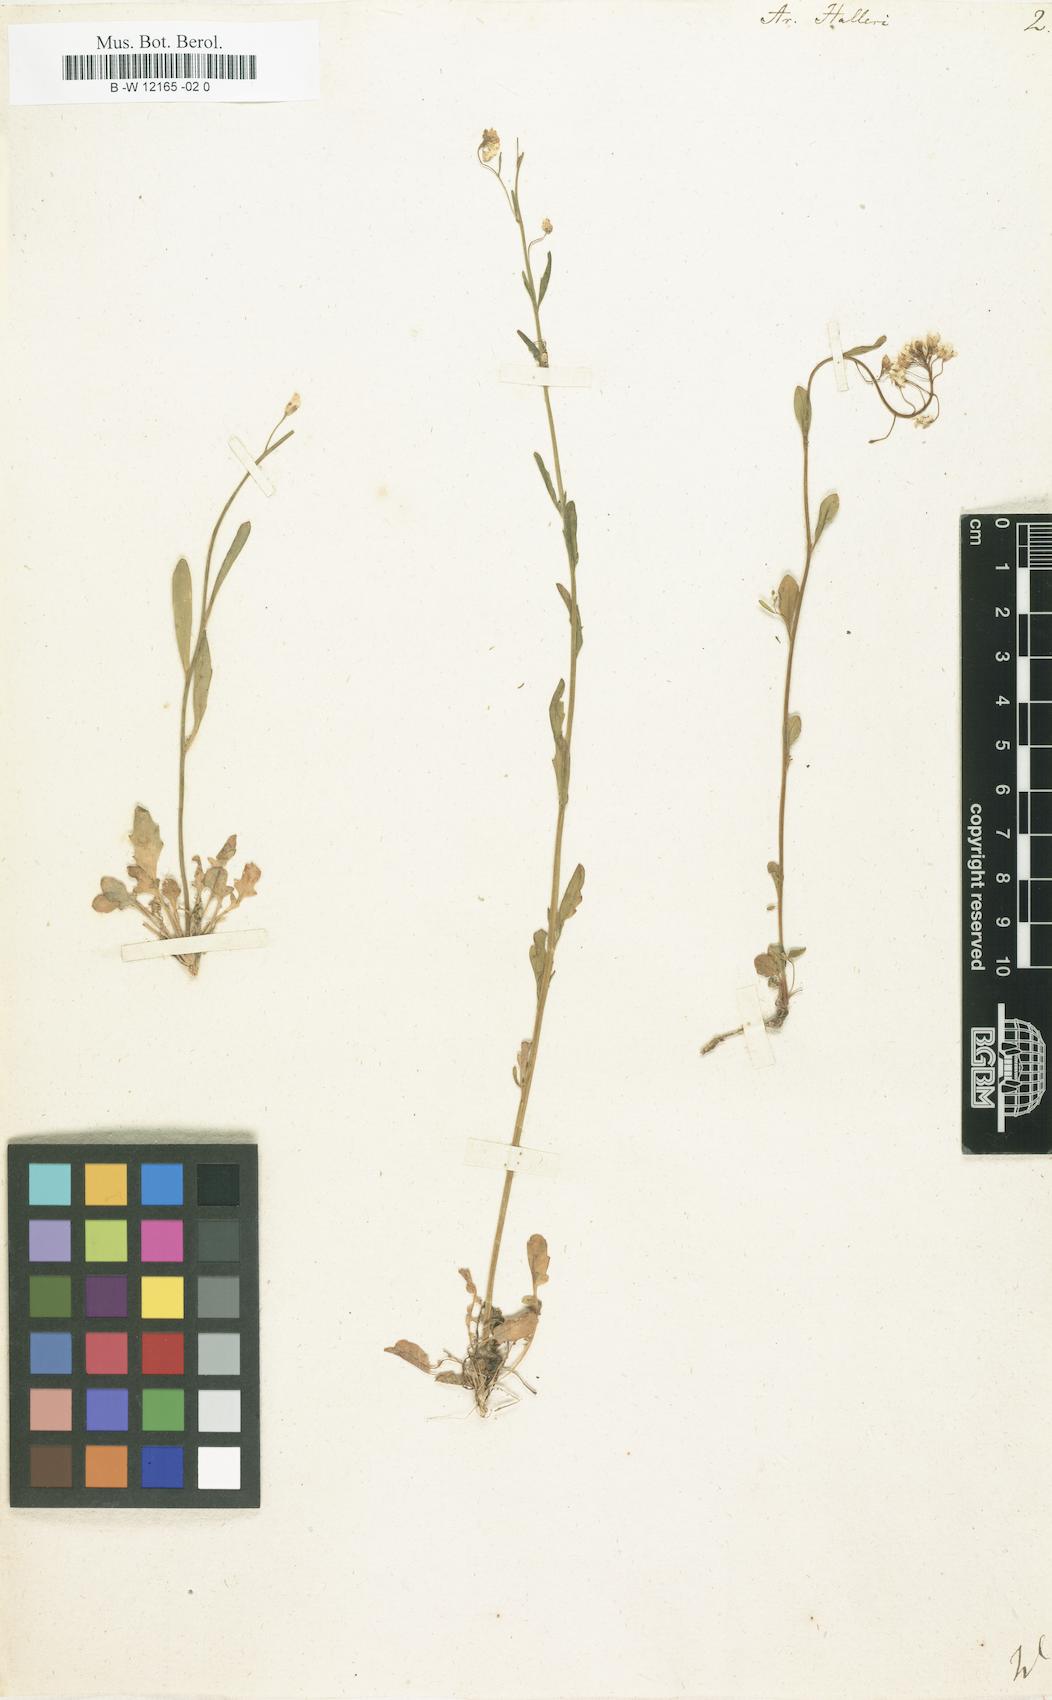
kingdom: Plantae
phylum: Tracheophyta
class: Magnoliopsida
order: Brassicales
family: Brassicaceae
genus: Arabidopsis
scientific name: Arabidopsis
